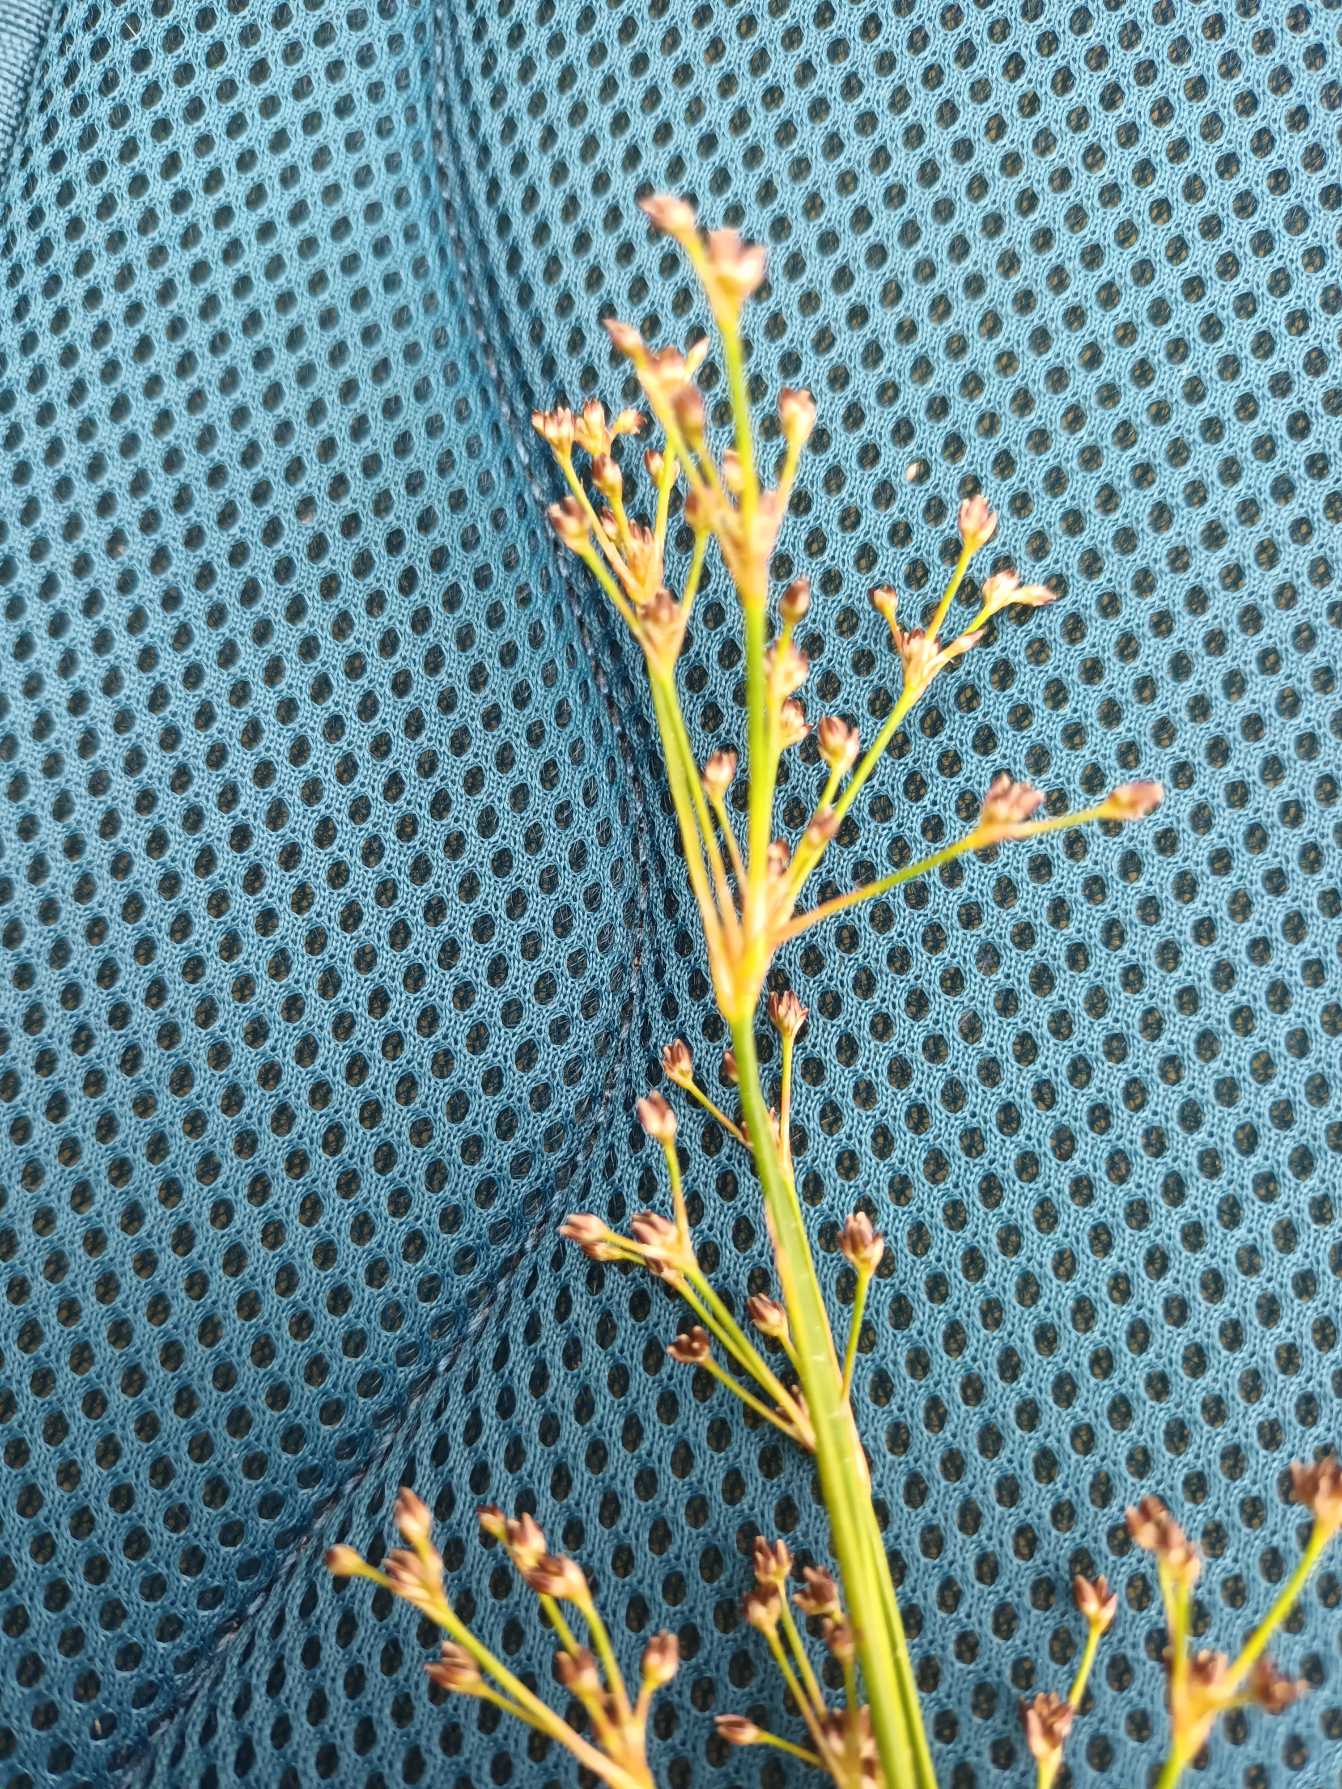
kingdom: Plantae
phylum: Tracheophyta
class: Liliopsida
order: Poales
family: Juncaceae
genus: Juncus
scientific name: Juncus subnodulosus
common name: Butblomstret siv
